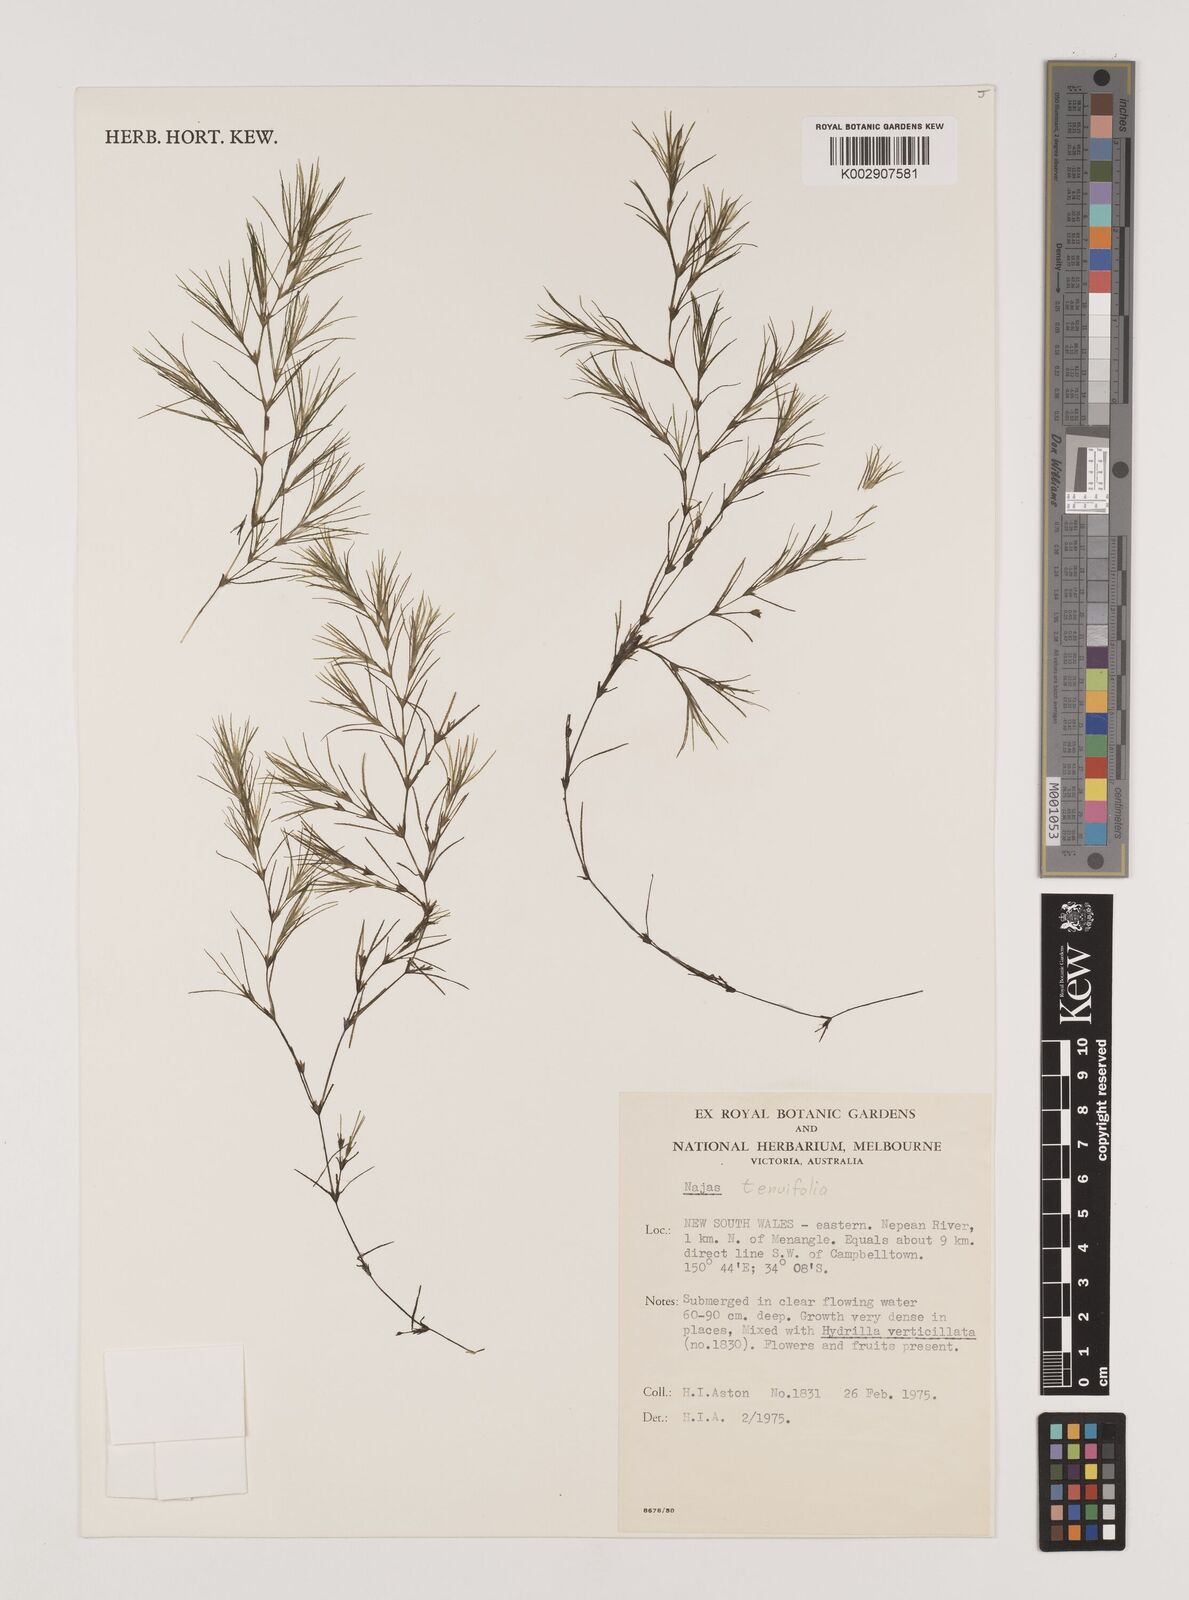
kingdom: Plantae
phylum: Tracheophyta
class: Liliopsida
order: Alismatales
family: Hydrocharitaceae
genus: Najas
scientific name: Najas tenuifolia
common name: Thin-leaved naiad
